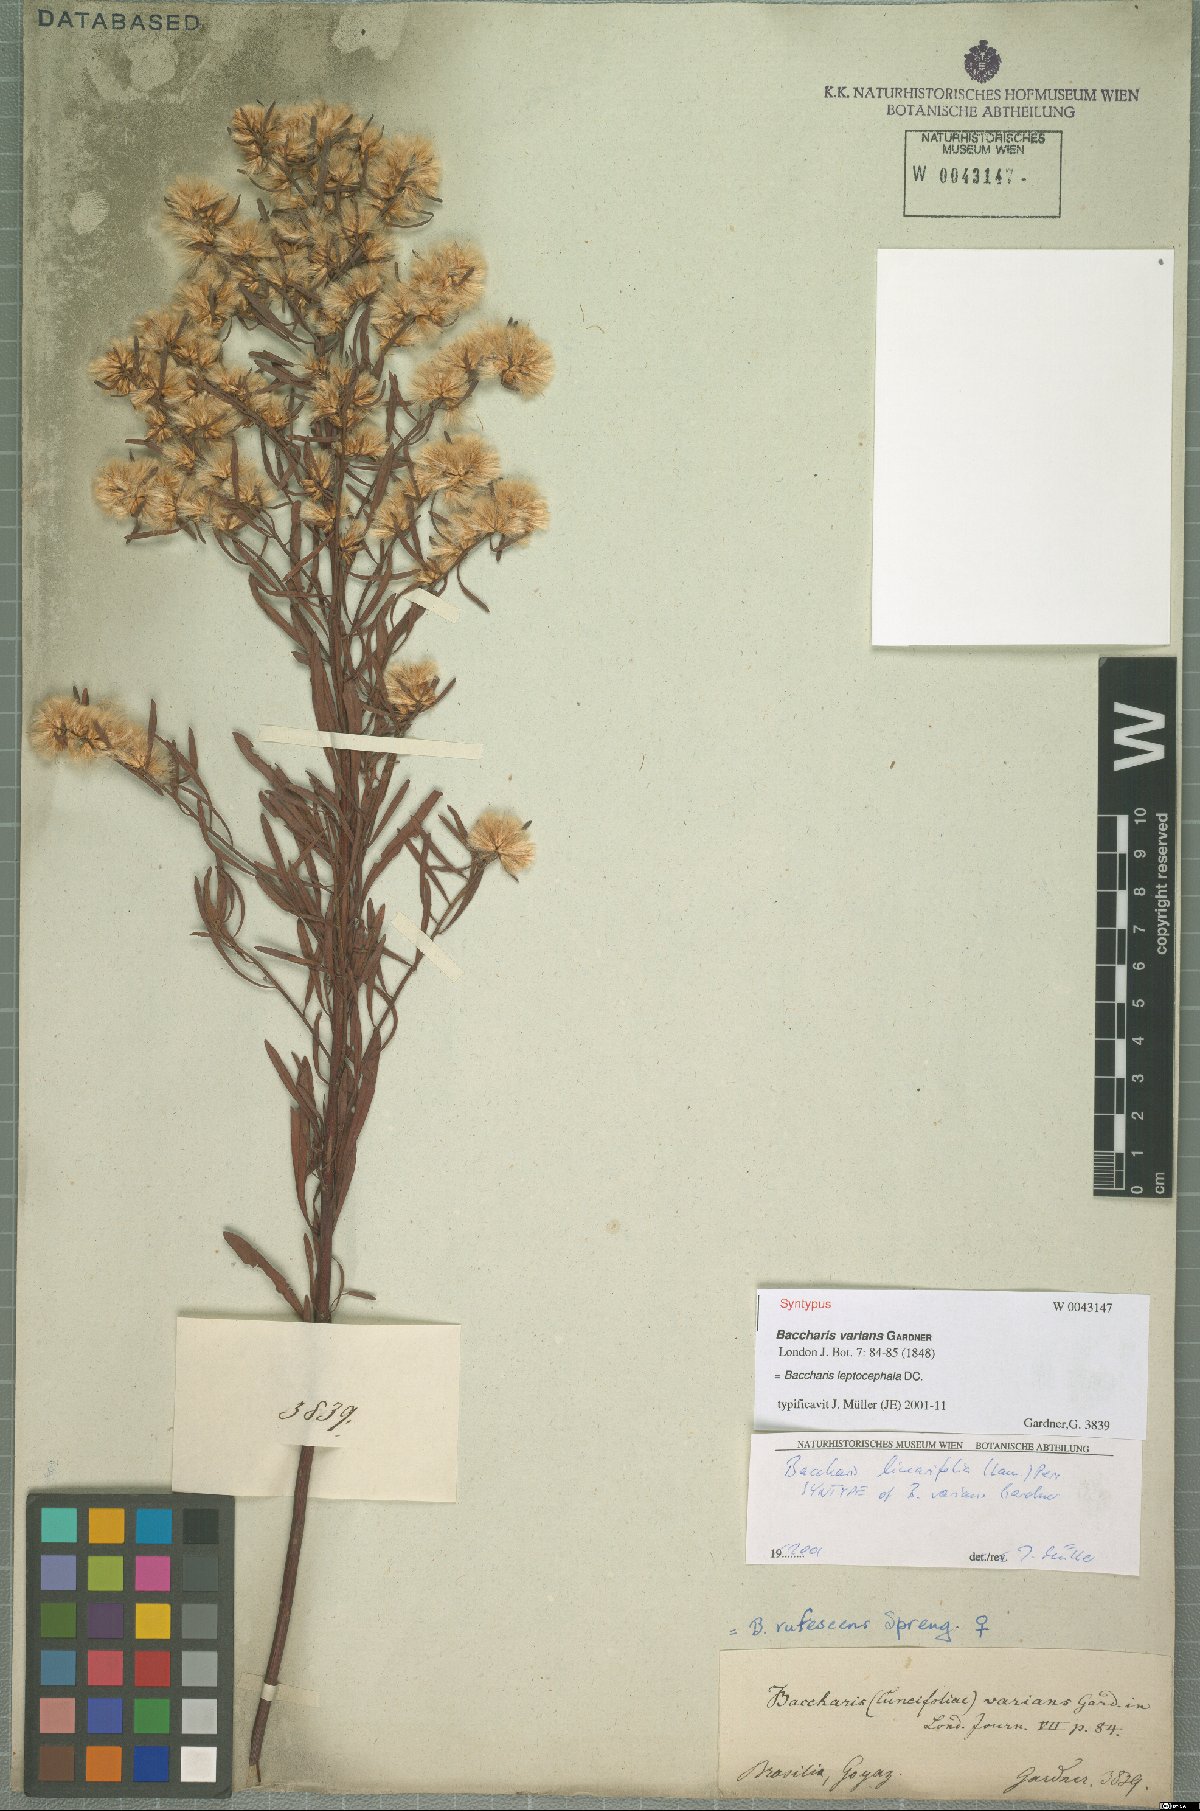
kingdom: Plantae
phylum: Tracheophyta
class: Magnoliopsida
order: Asterales
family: Asteraceae
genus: Baccharis
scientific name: Baccharis leptocephala
